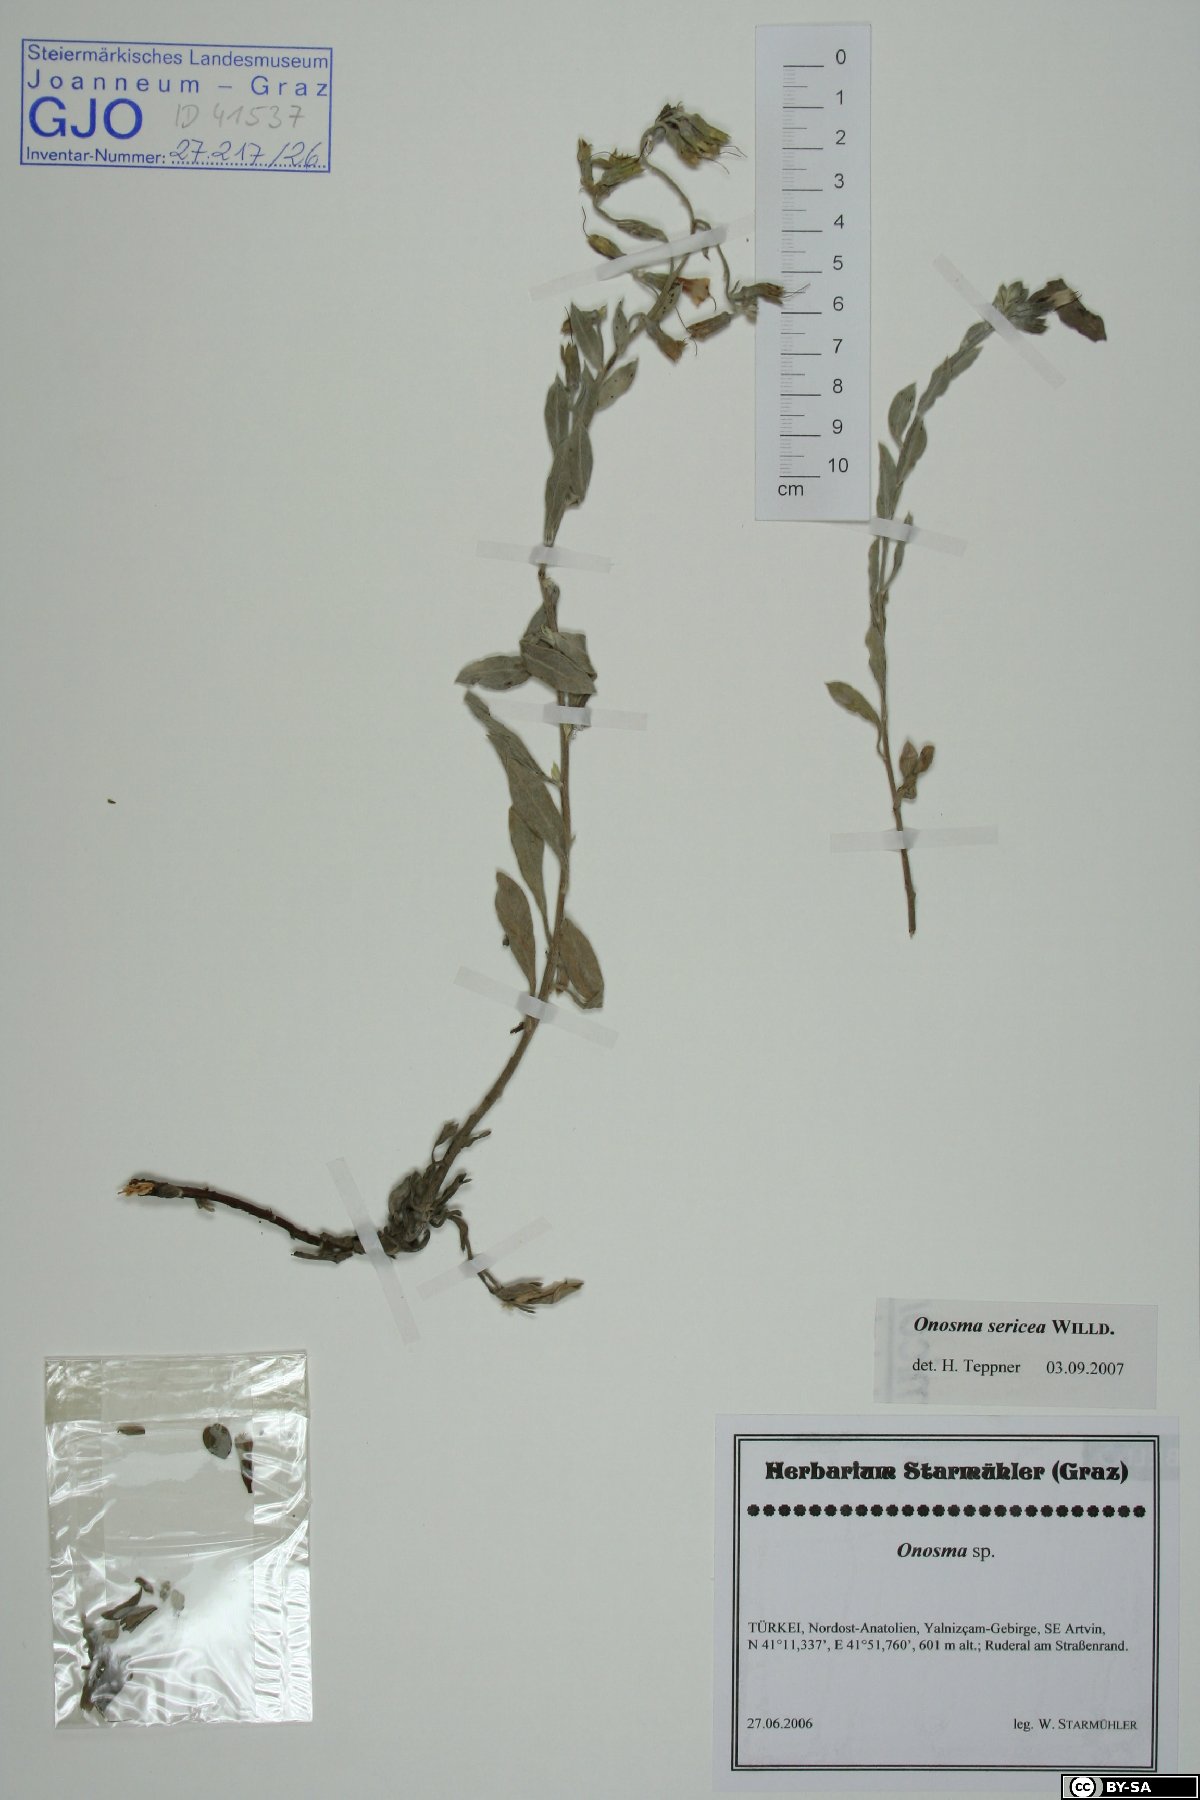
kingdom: Plantae
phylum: Tracheophyta
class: Magnoliopsida
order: Boraginales
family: Boraginaceae
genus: Onosma
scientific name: Onosma sericea
